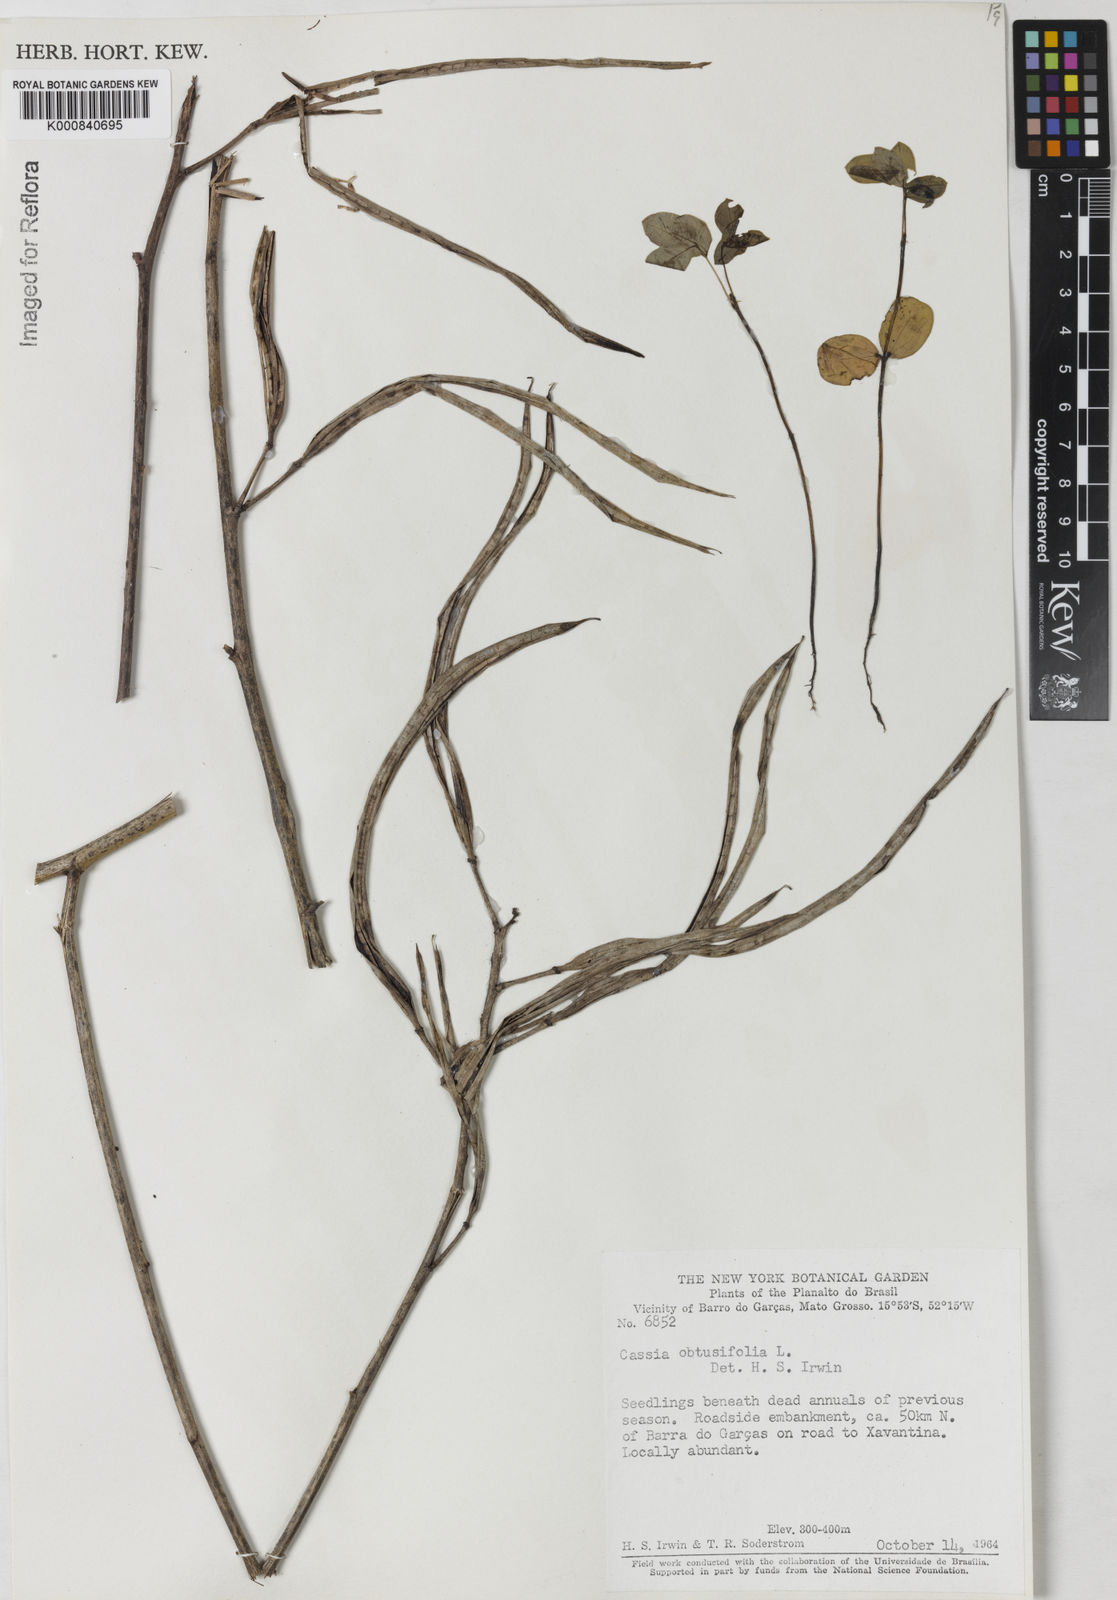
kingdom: Plantae
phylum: Tracheophyta
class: Magnoliopsida
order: Fabales
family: Fabaceae
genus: Senna
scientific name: Senna obtusifolia
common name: Java-bean
